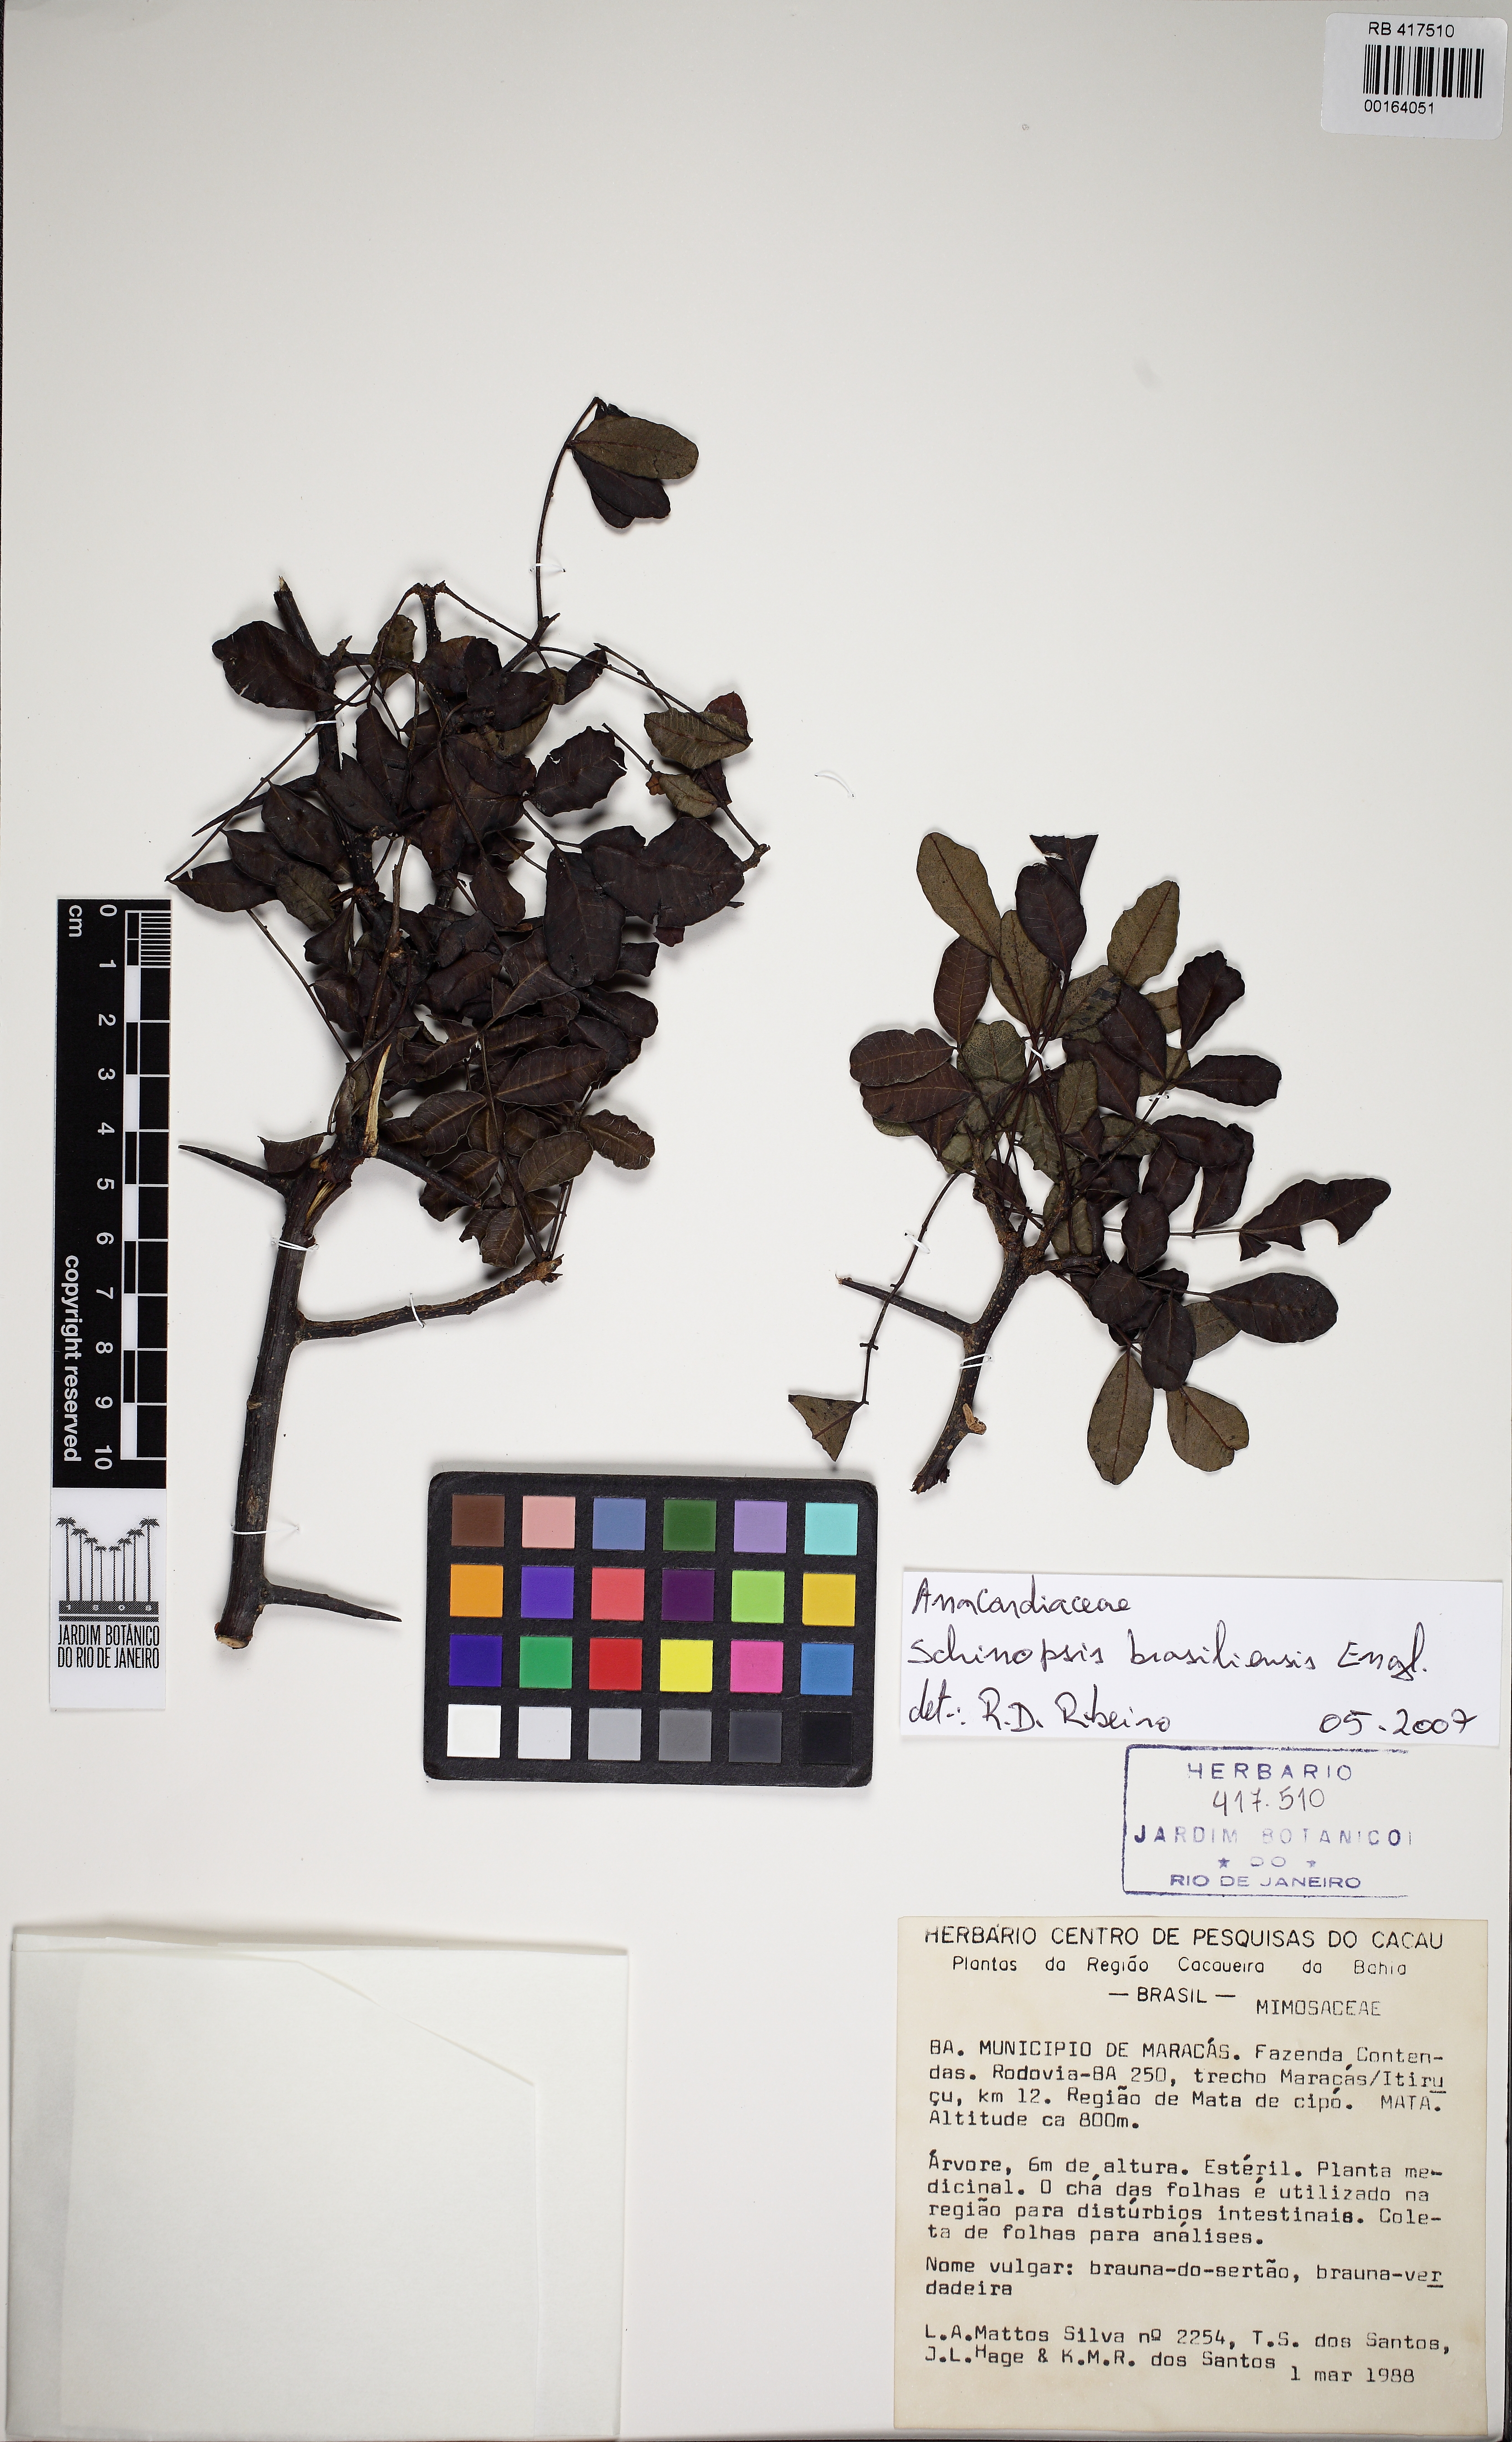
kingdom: Plantae
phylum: Tracheophyta
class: Magnoliopsida
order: Fabales
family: Fabaceae
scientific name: Fabaceae
